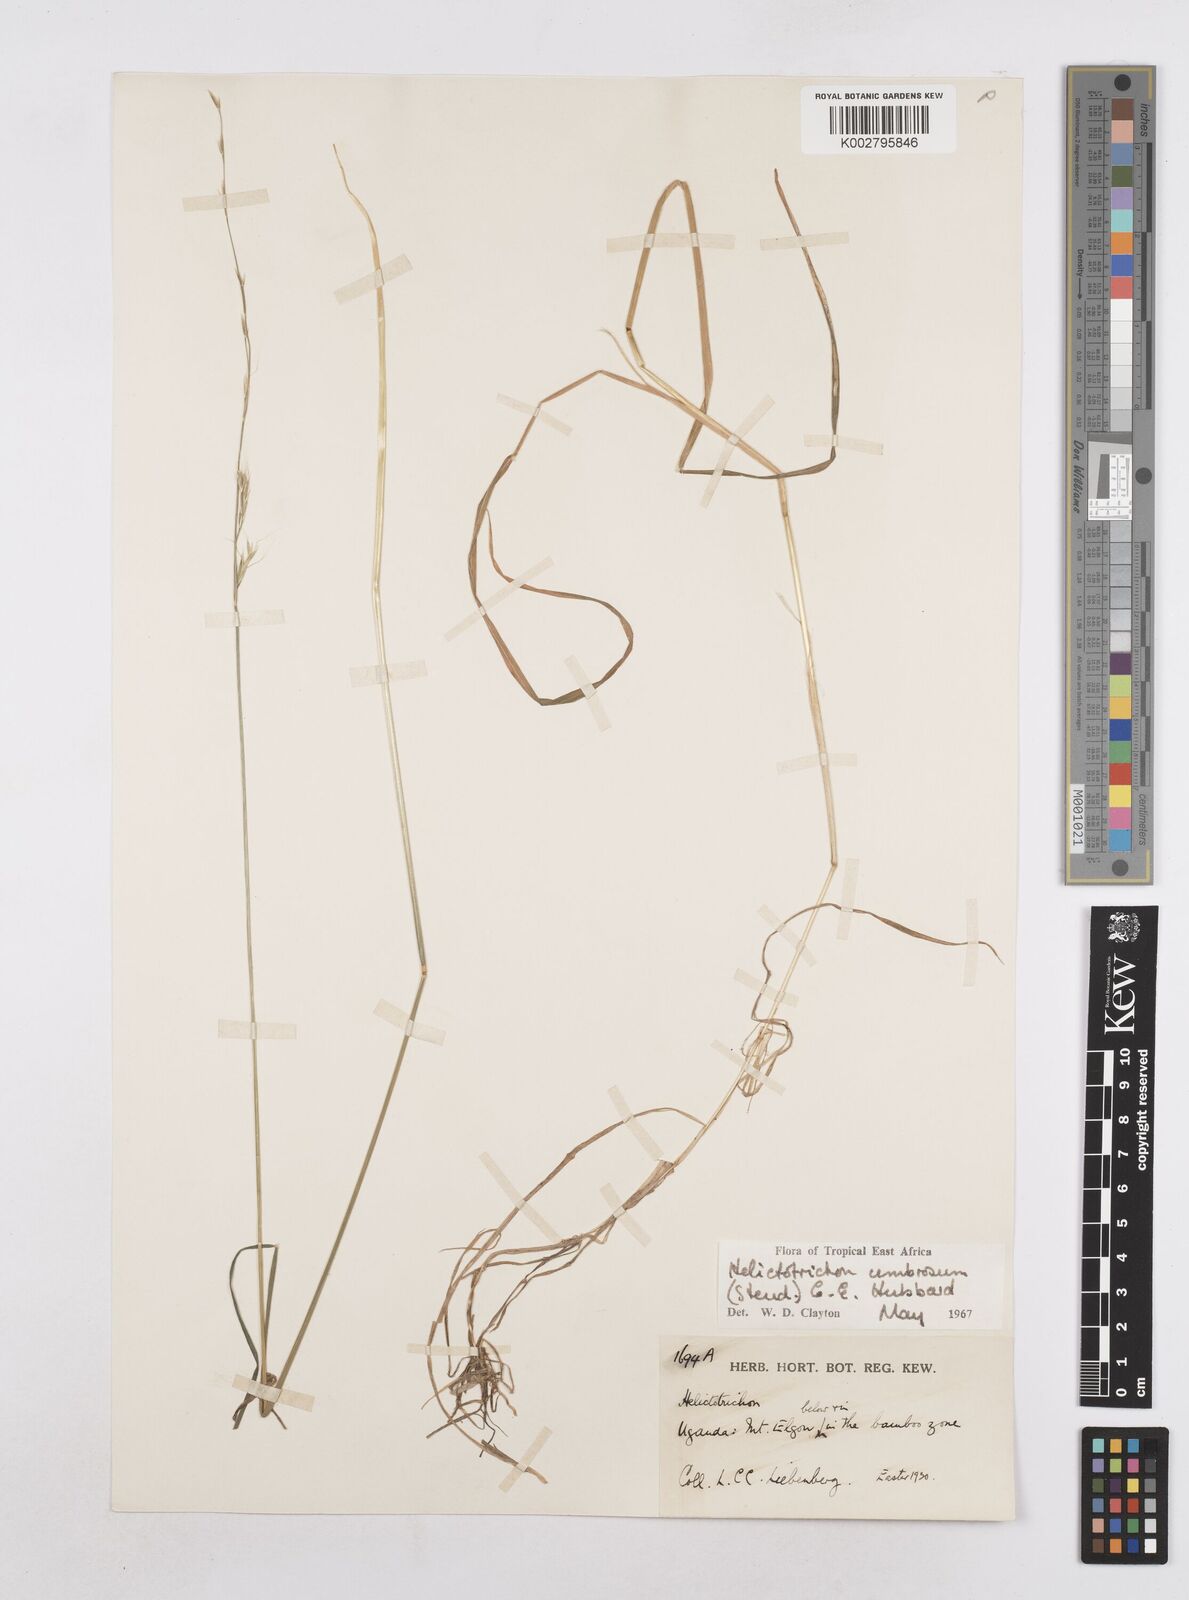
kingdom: Plantae
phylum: Tracheophyta
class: Liliopsida
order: Poales
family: Poaceae
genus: Trisetopsis
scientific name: Trisetopsis umbrosa
